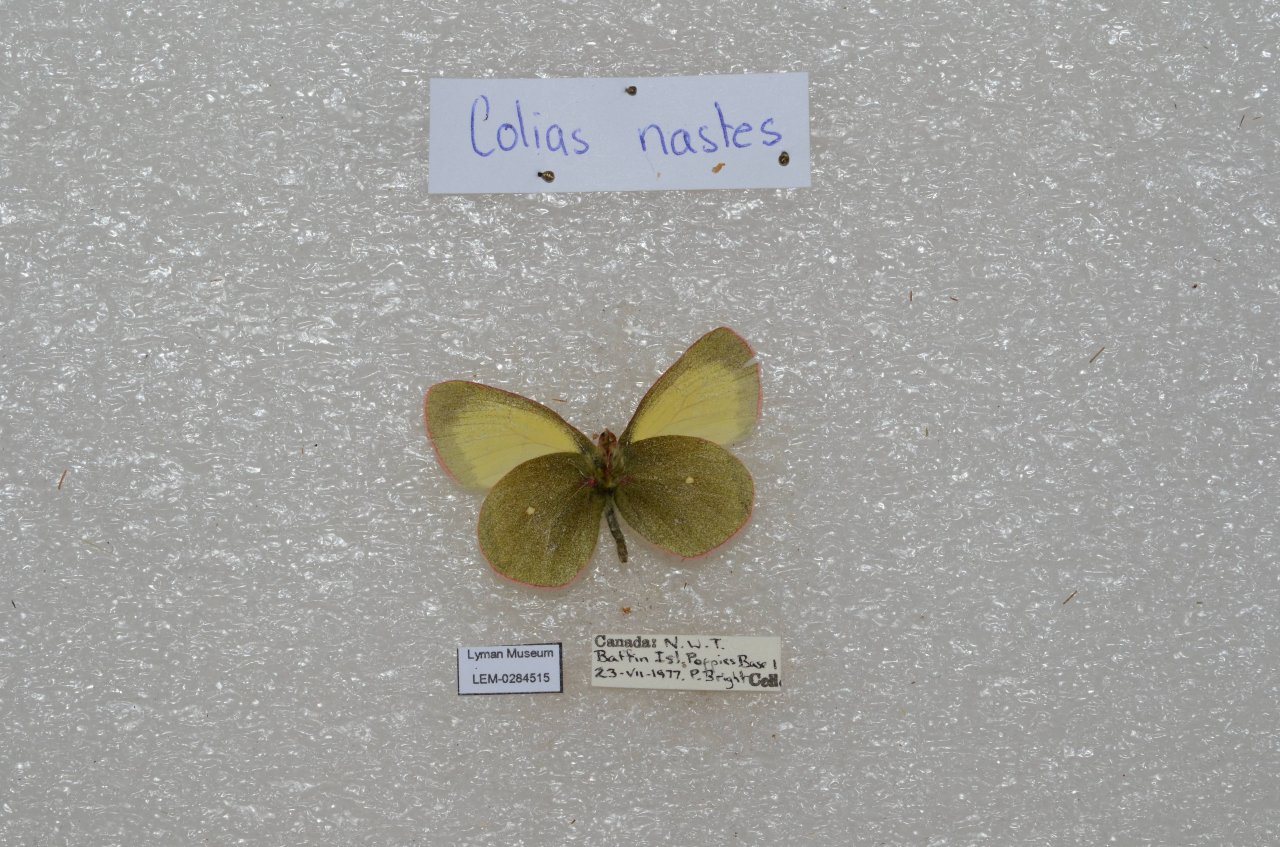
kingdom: Animalia
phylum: Arthropoda
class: Insecta
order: Lepidoptera
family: Pieridae
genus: Colias
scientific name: Colias palaeno
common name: Chippewa Sulphur
